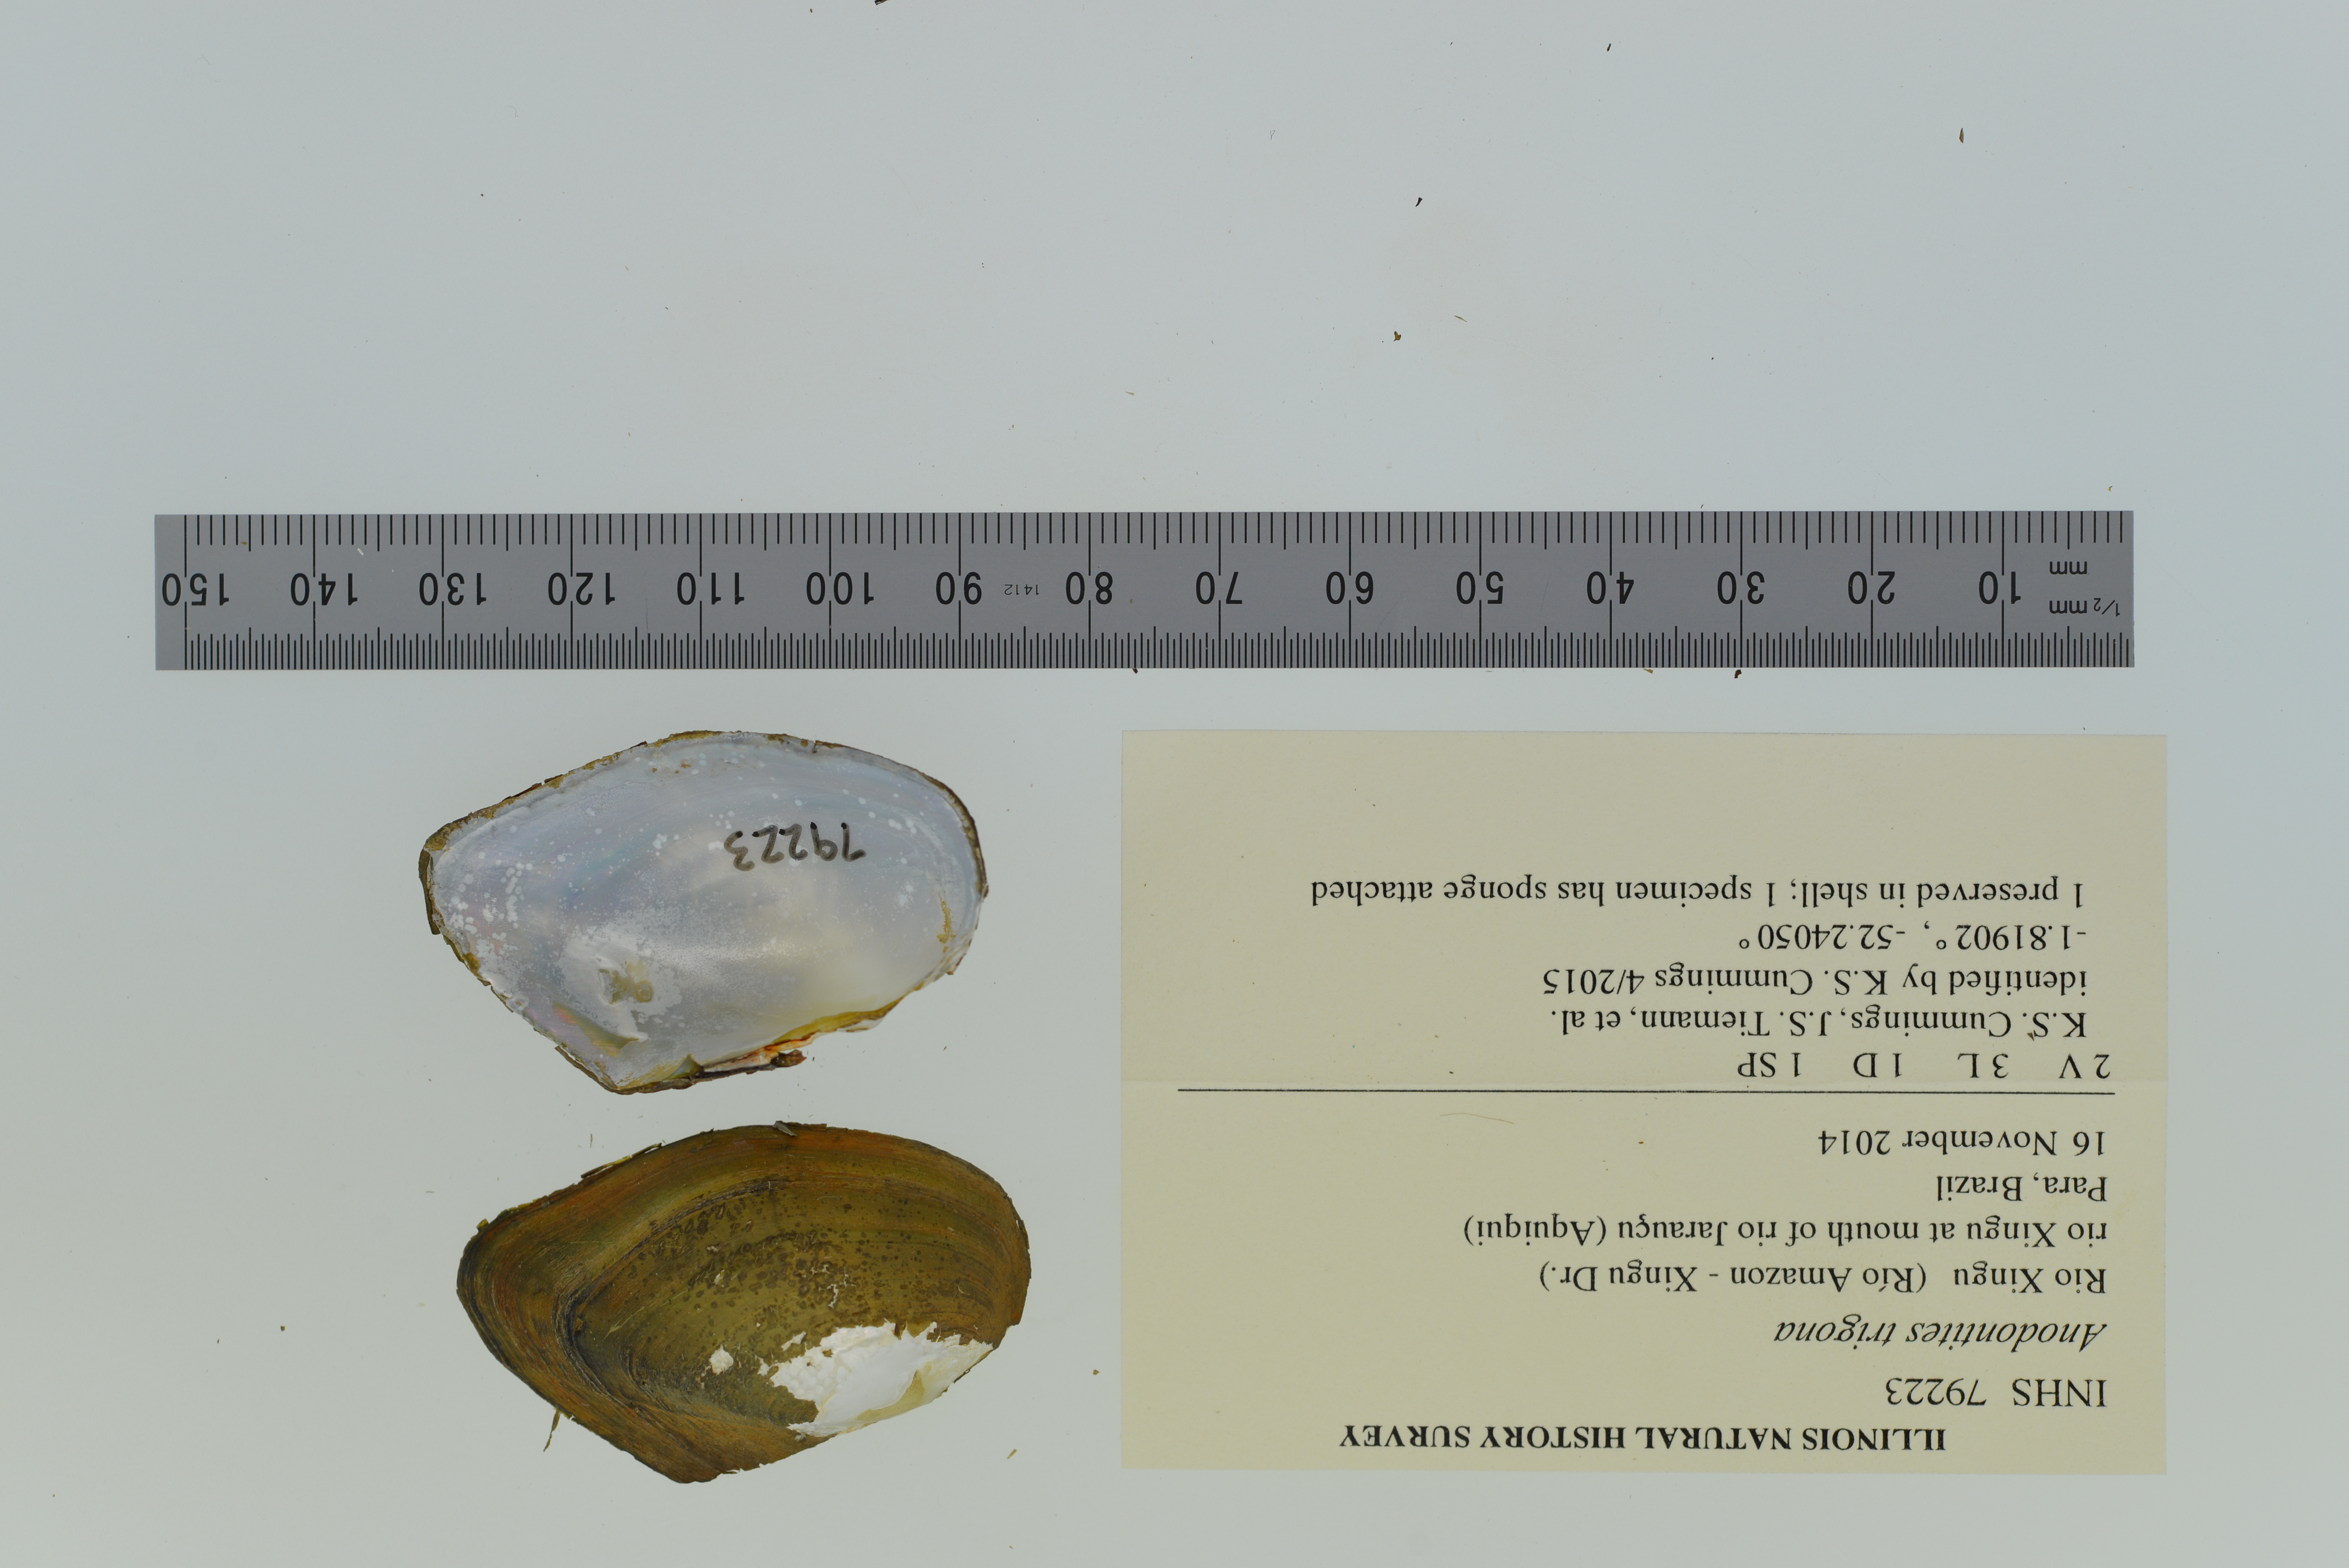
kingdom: Animalia
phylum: Mollusca
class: Bivalvia
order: Unionida
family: Mycetopodidae
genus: Anodontites
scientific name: Anodontites trigona
